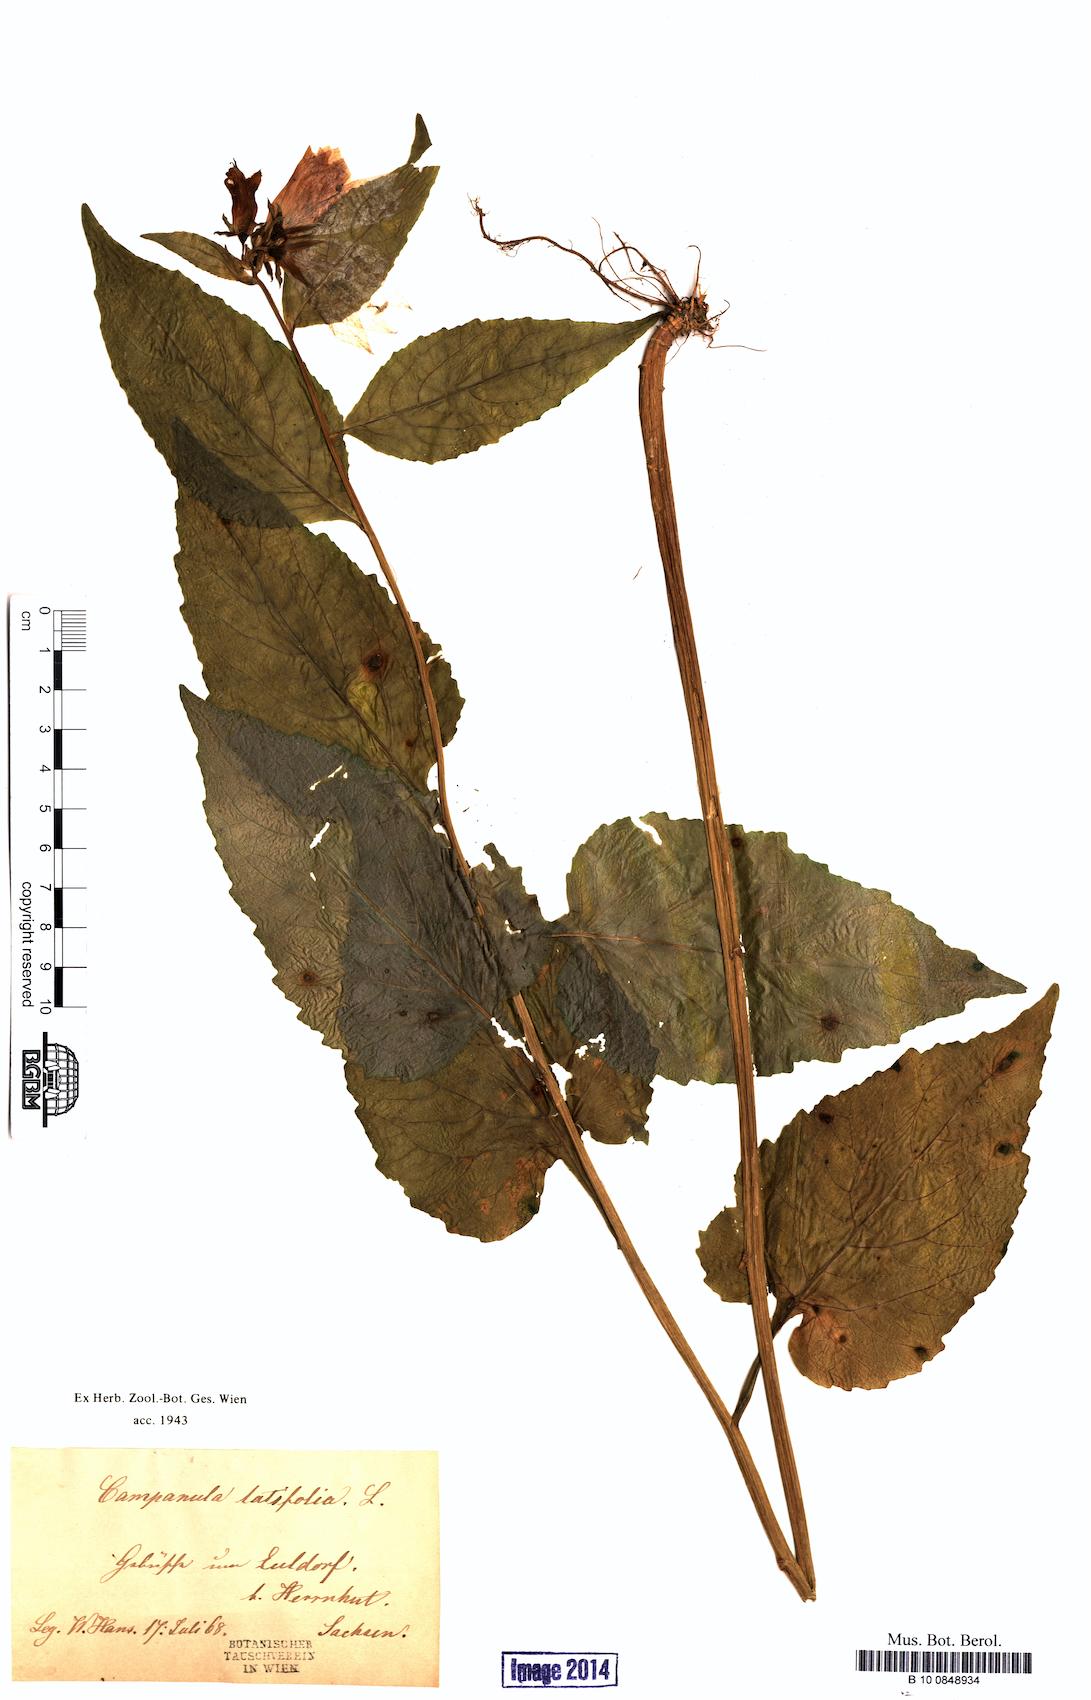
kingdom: Plantae
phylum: Tracheophyta
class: Magnoliopsida
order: Asterales
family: Campanulaceae
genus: Campanula
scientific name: Campanula latifolia
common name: Giant bellflower
